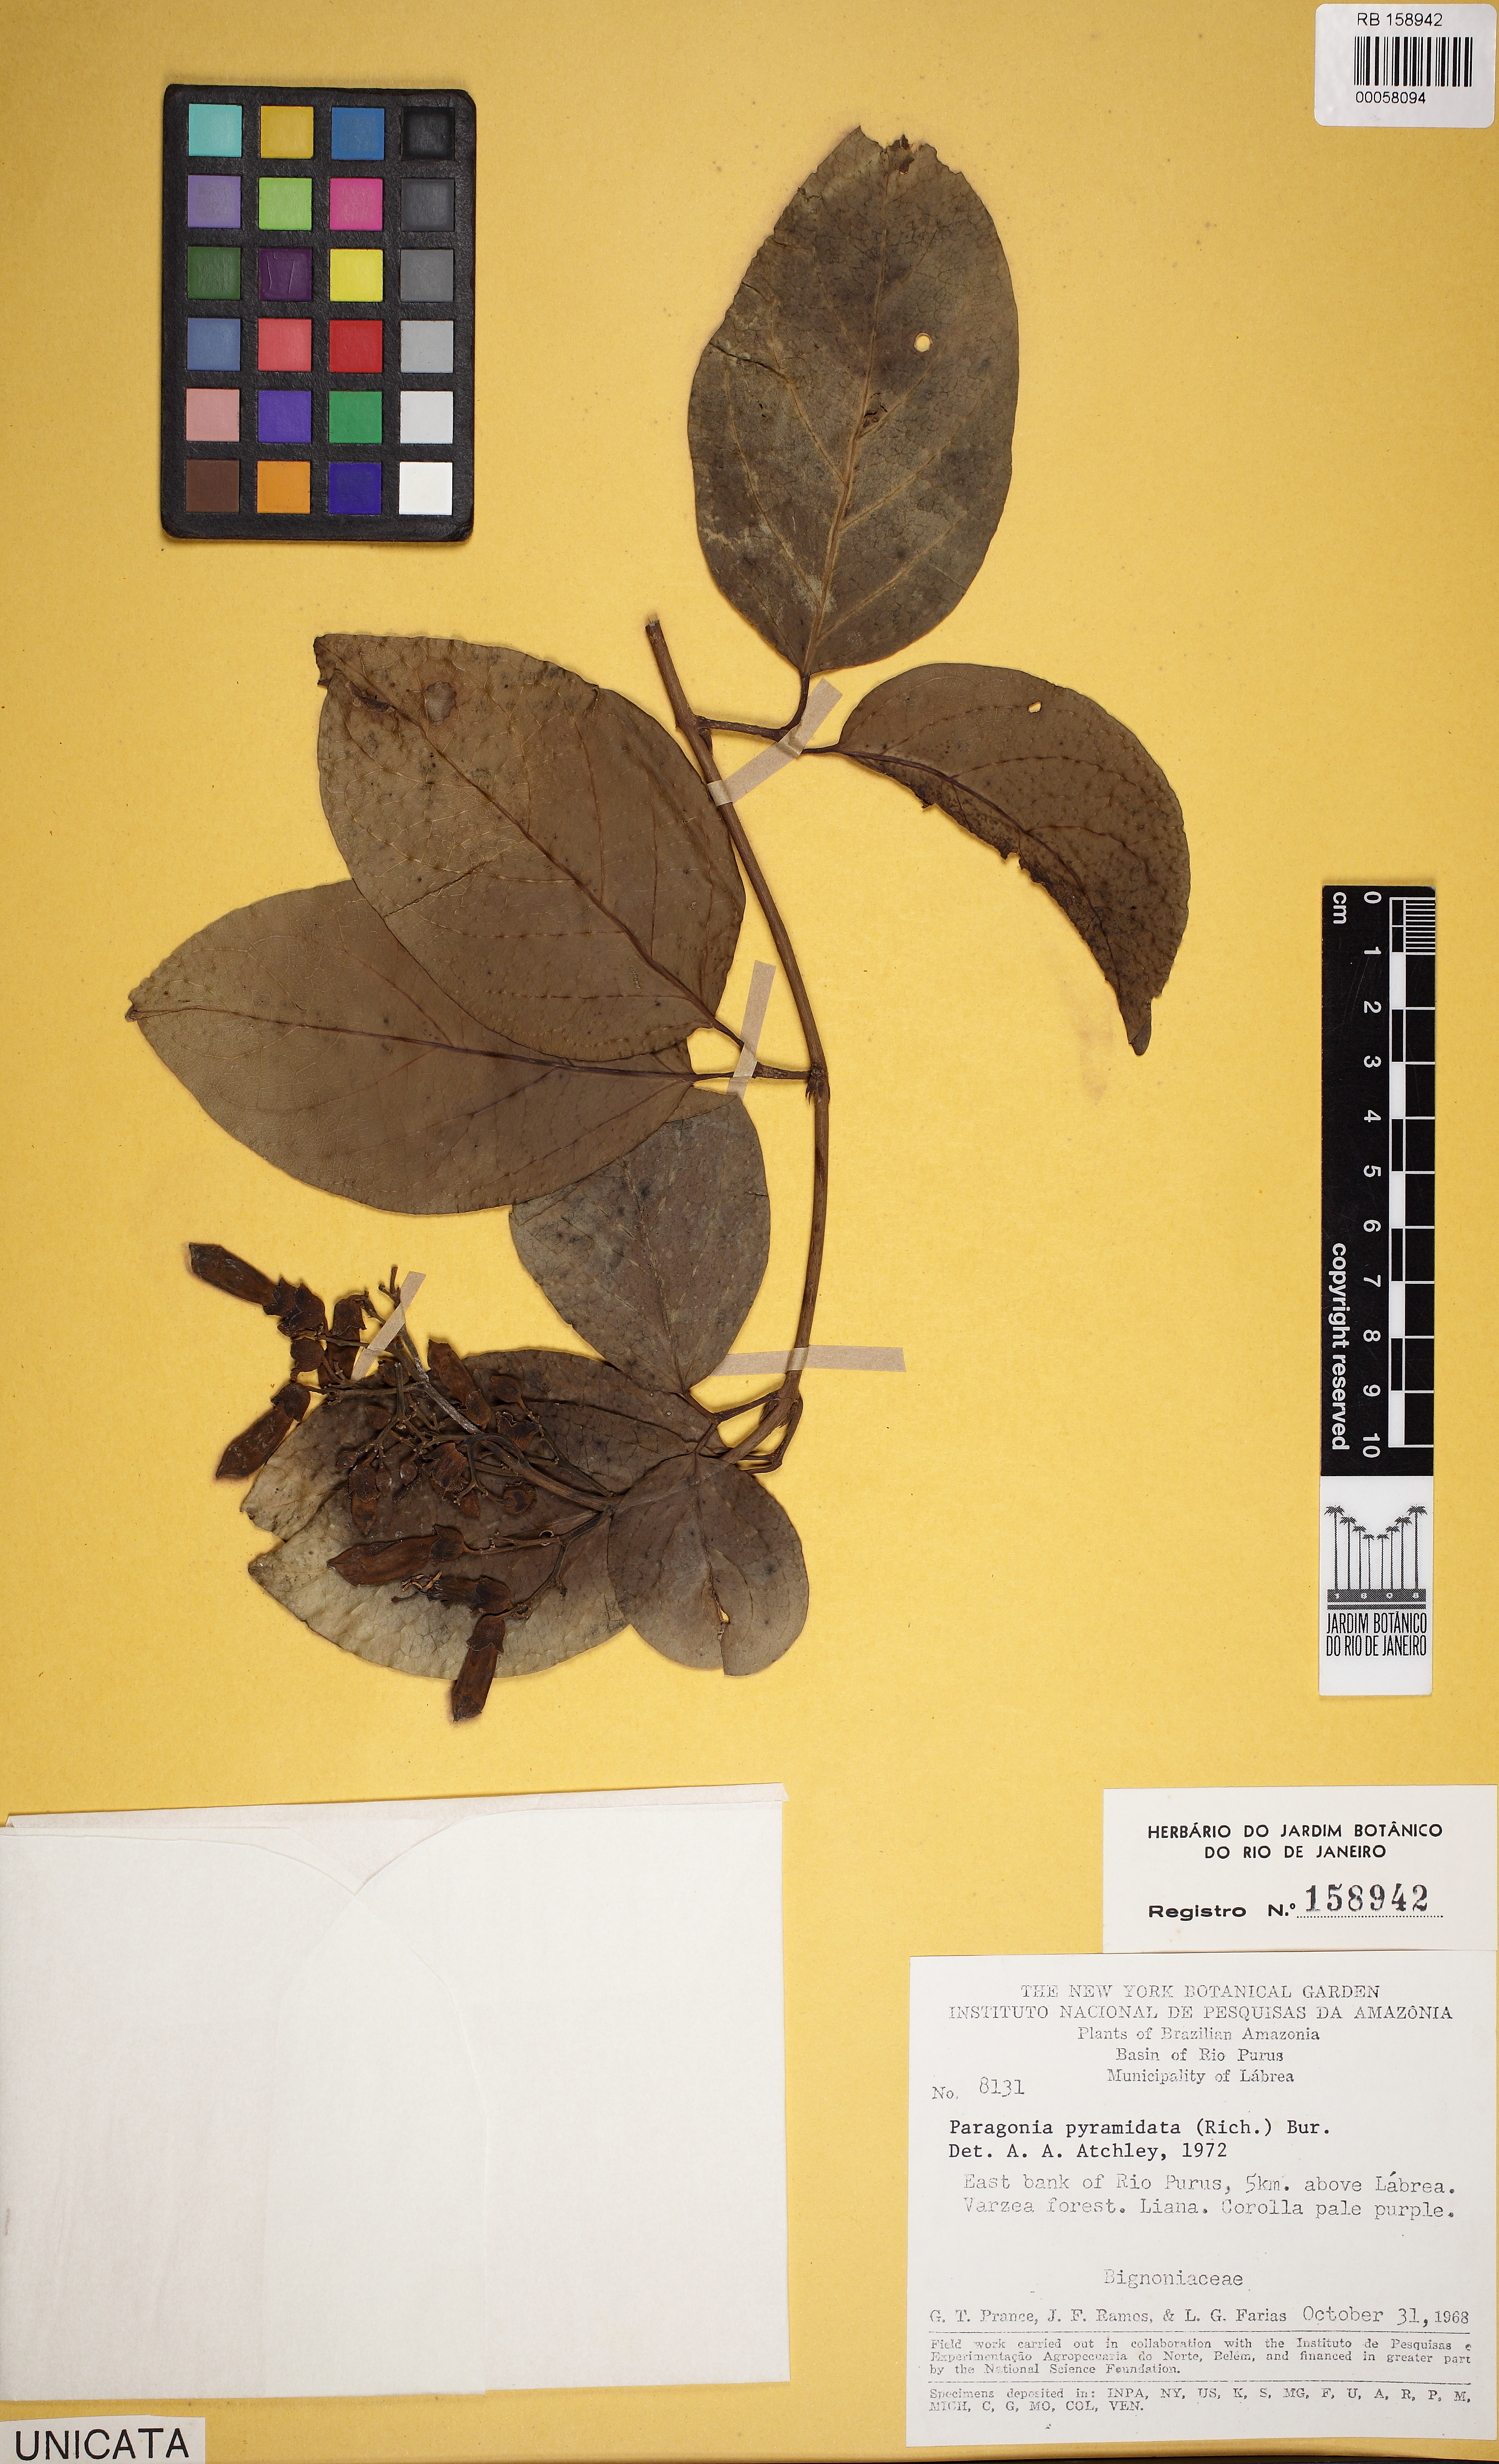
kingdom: Plantae
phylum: Tracheophyta
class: Magnoliopsida
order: Lamiales
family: Bignoniaceae
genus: Tanaecium
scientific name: Tanaecium pyramidatum
